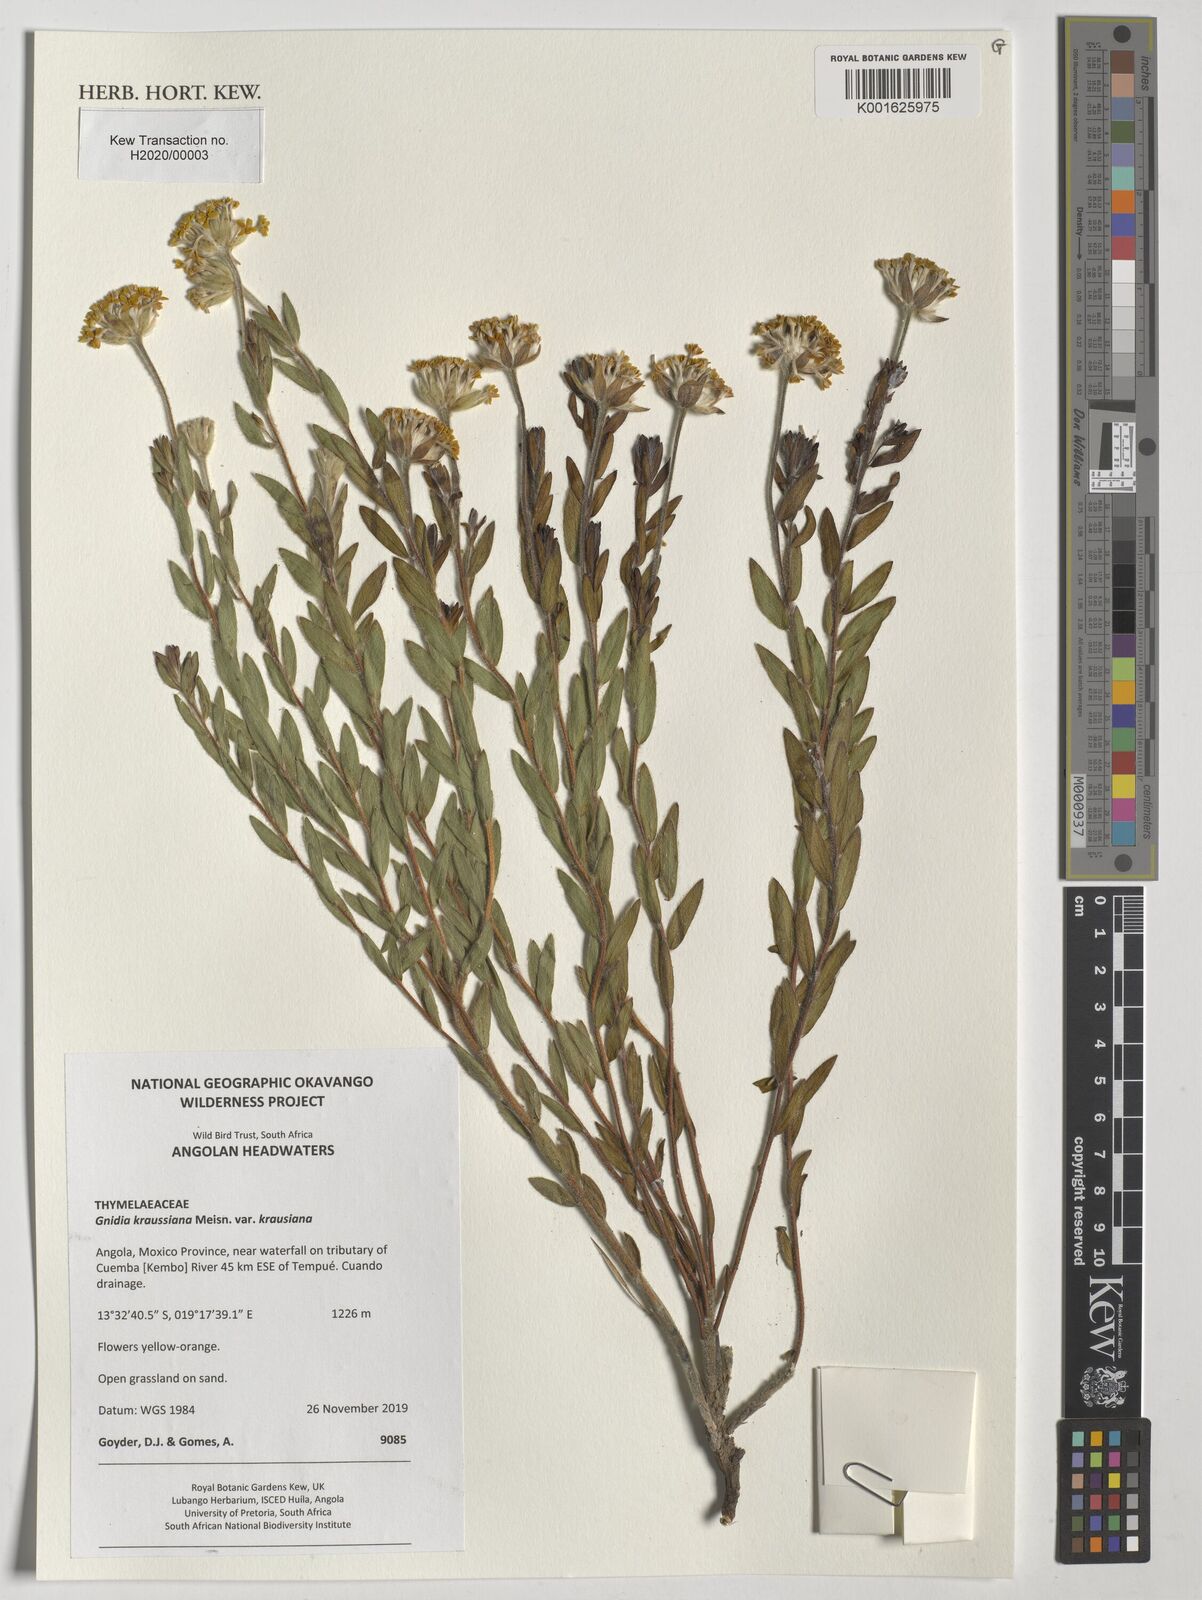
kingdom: Plantae
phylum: Tracheophyta
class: Magnoliopsida
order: Malvales
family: Thymelaeaceae
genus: Gnidia
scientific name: Gnidia kraussiana
